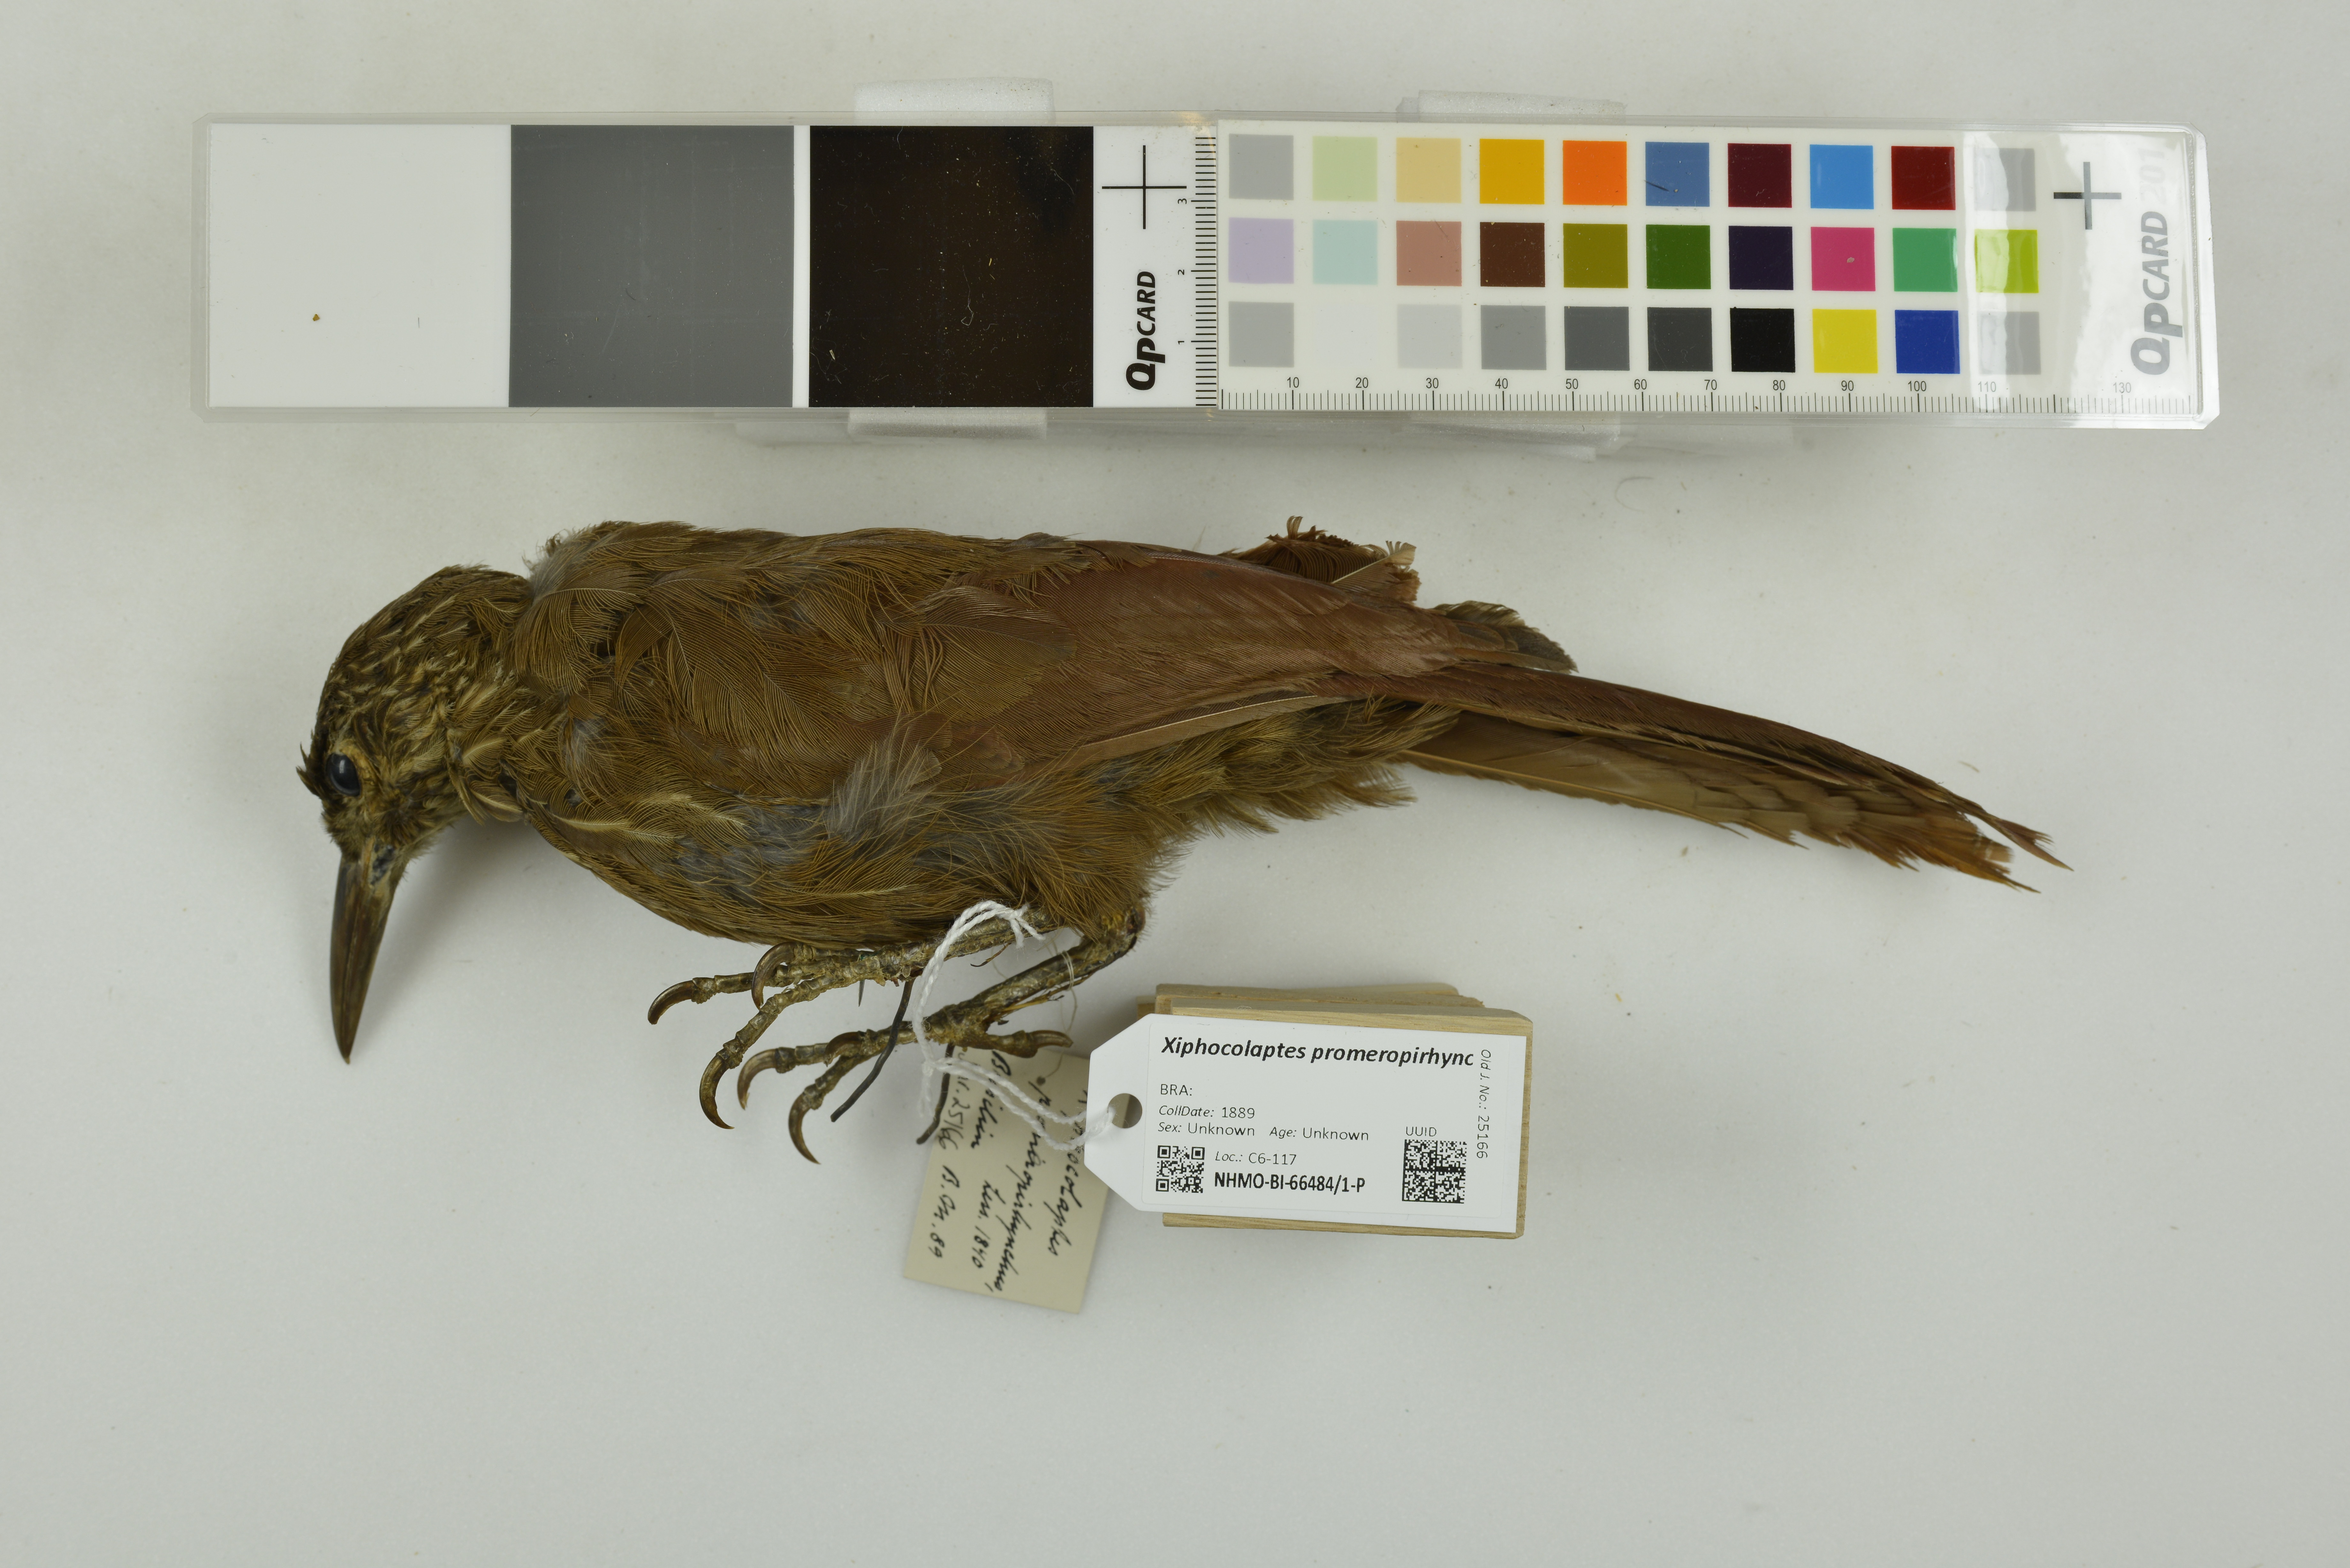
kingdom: Animalia
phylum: Chordata
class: Aves
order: Passeriformes
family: Furnariidae
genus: Xiphocolaptes
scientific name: Xiphocolaptes promeropirhynchus
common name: Strong-billed woodcreeper
